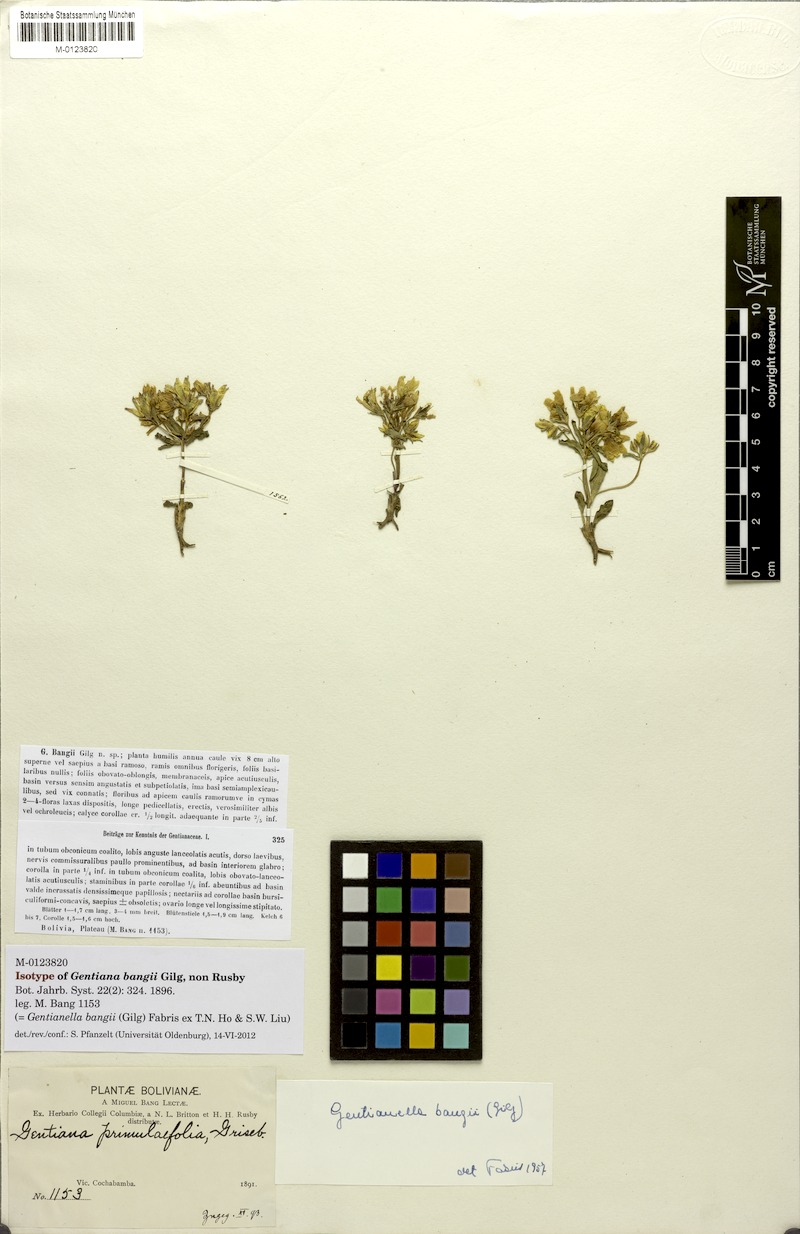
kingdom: Plantae
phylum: Tracheophyta
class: Magnoliopsida
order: Gentianales
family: Gentianaceae
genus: Gentianella
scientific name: Gentianella bangii
